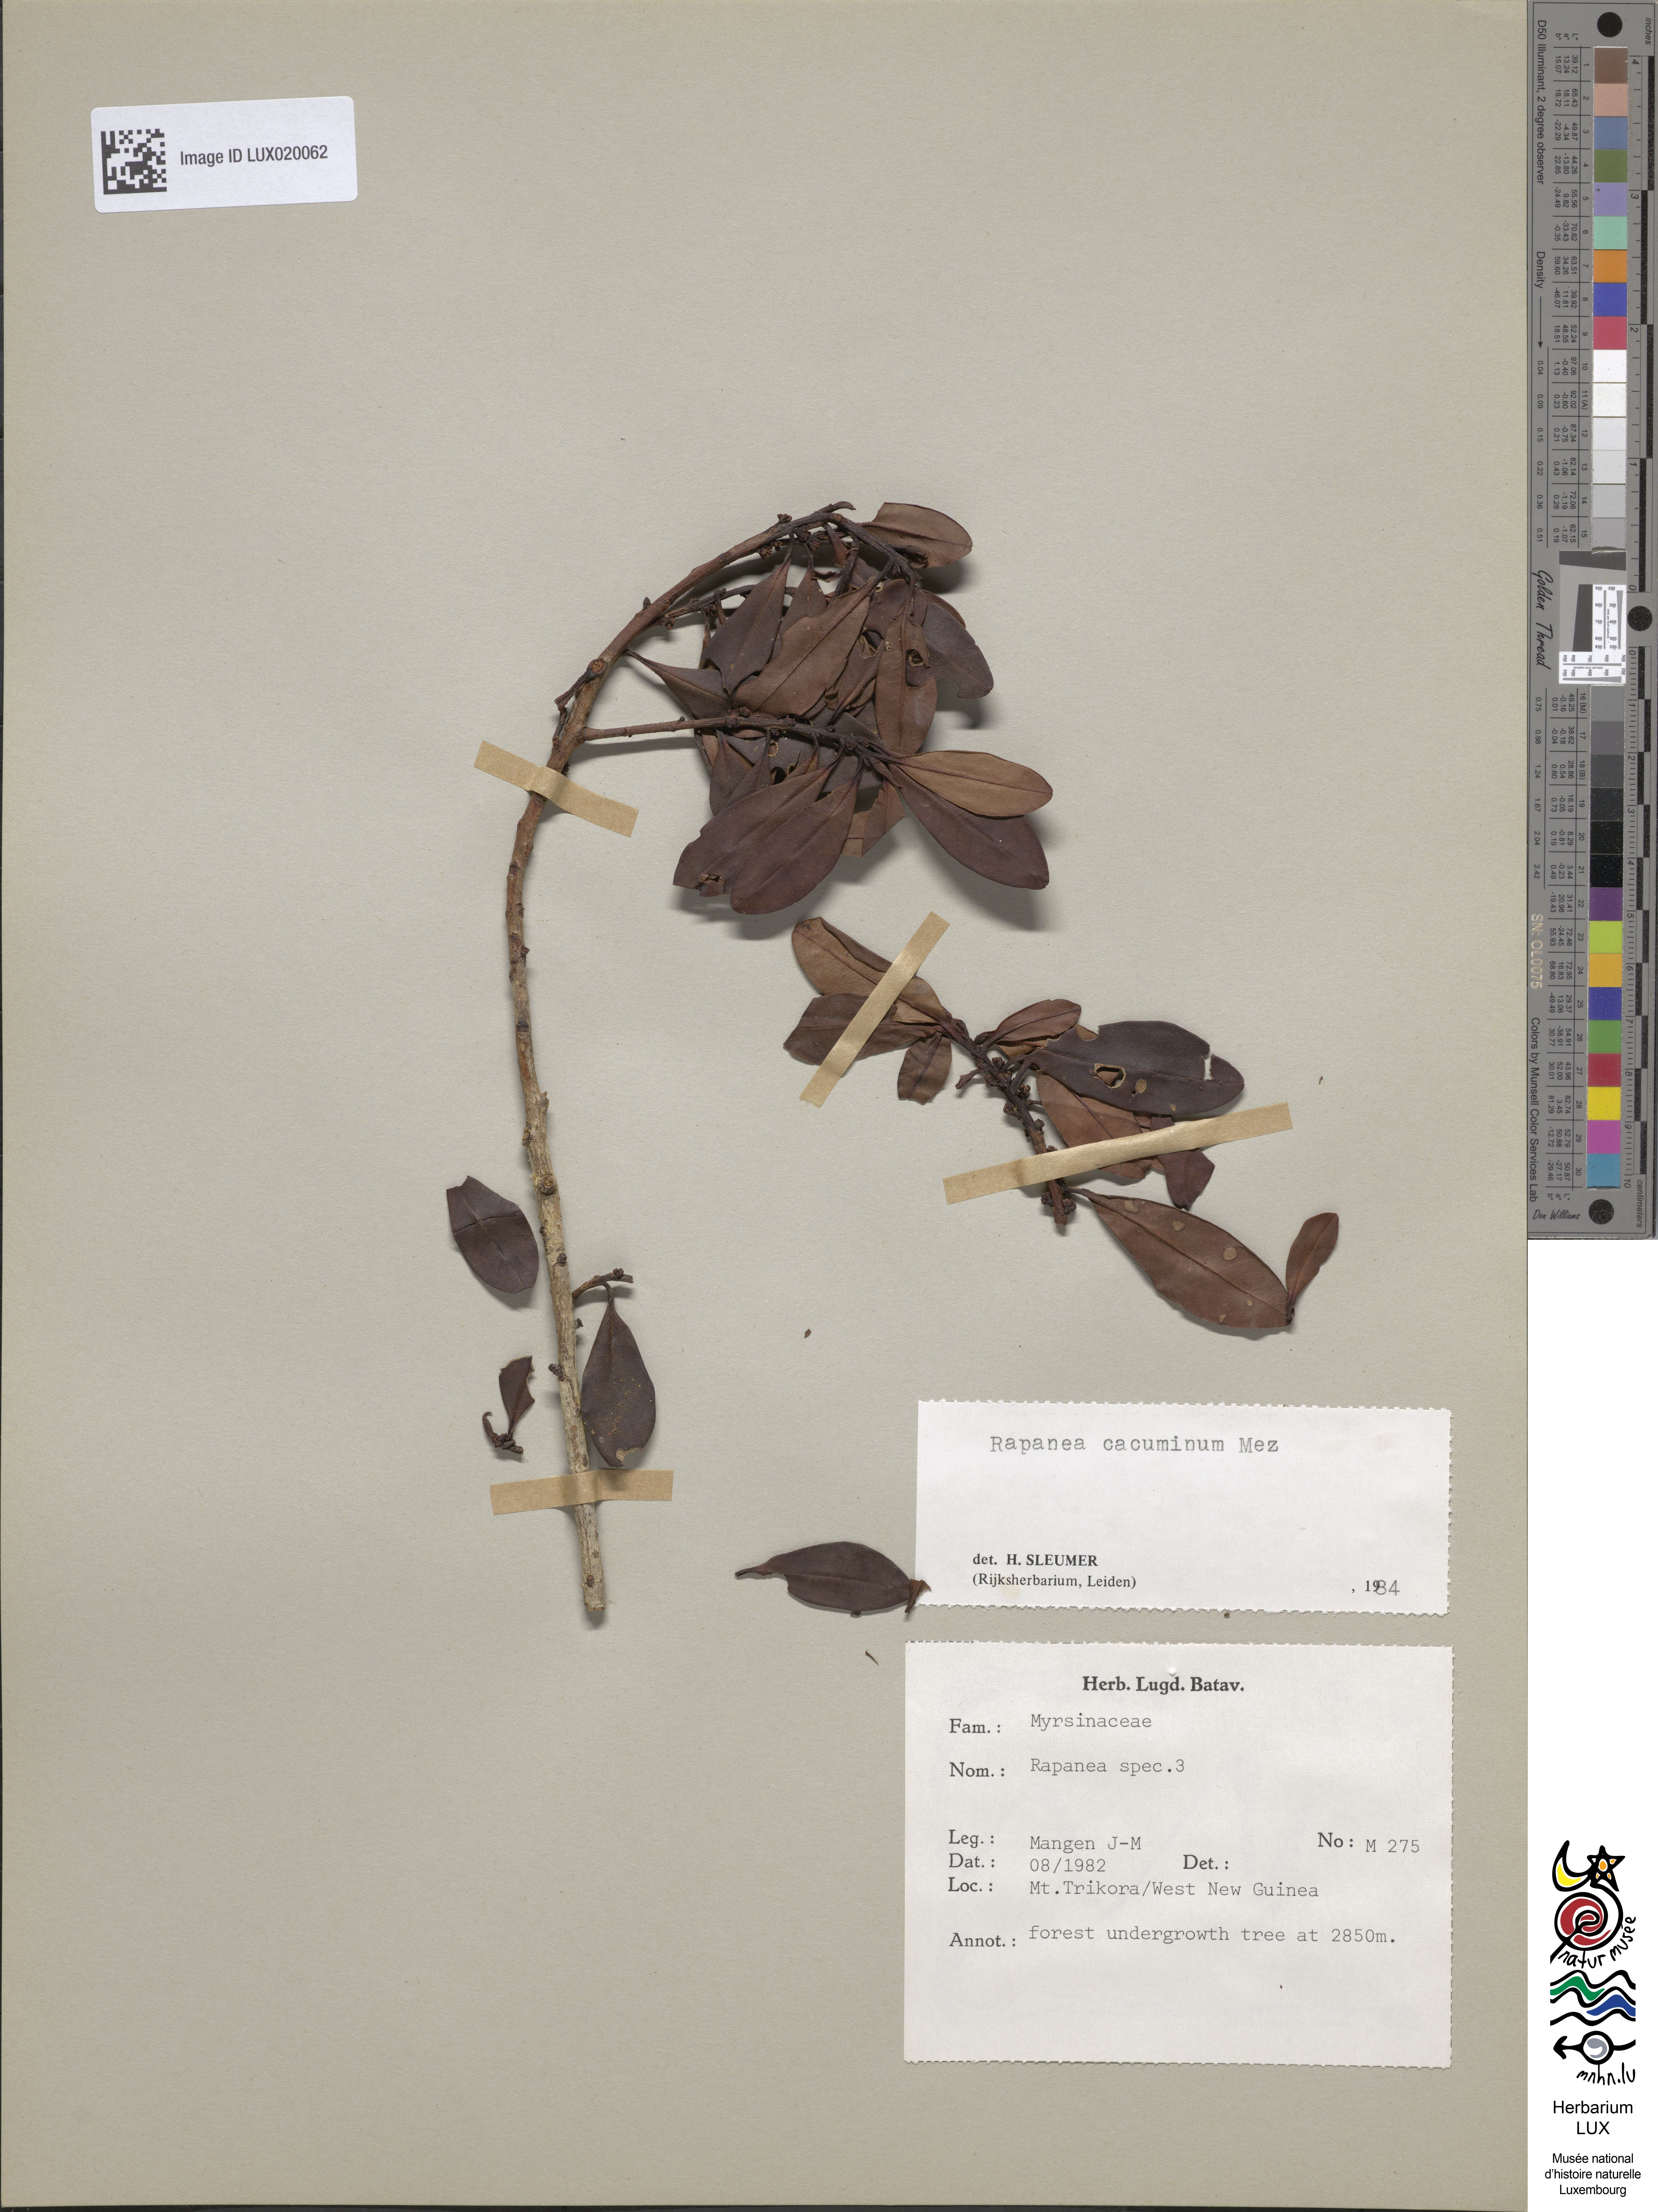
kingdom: Plantae
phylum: Tracheophyta
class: Magnoliopsida
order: Ericales
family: Primulaceae
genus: Myrsine
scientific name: Myrsine cacuminum
